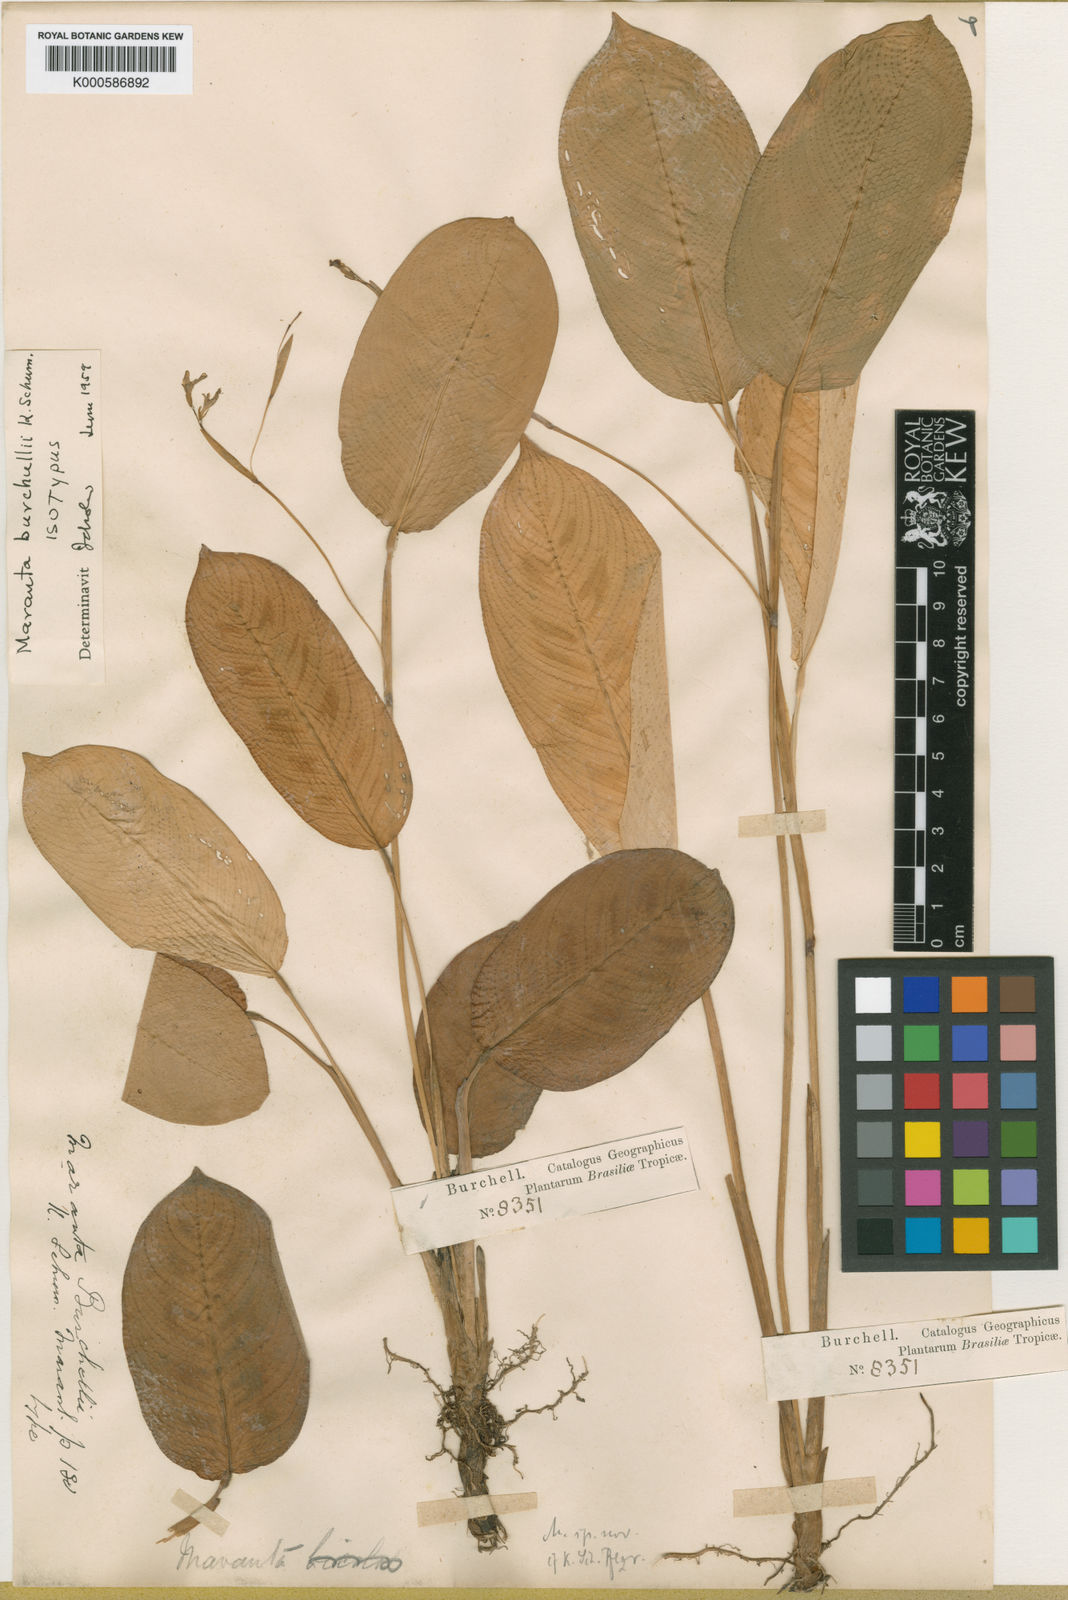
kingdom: Plantae
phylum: Tracheophyta
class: Liliopsida
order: Zingiberales
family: Marantaceae
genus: Maranta
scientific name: Maranta burchellii
